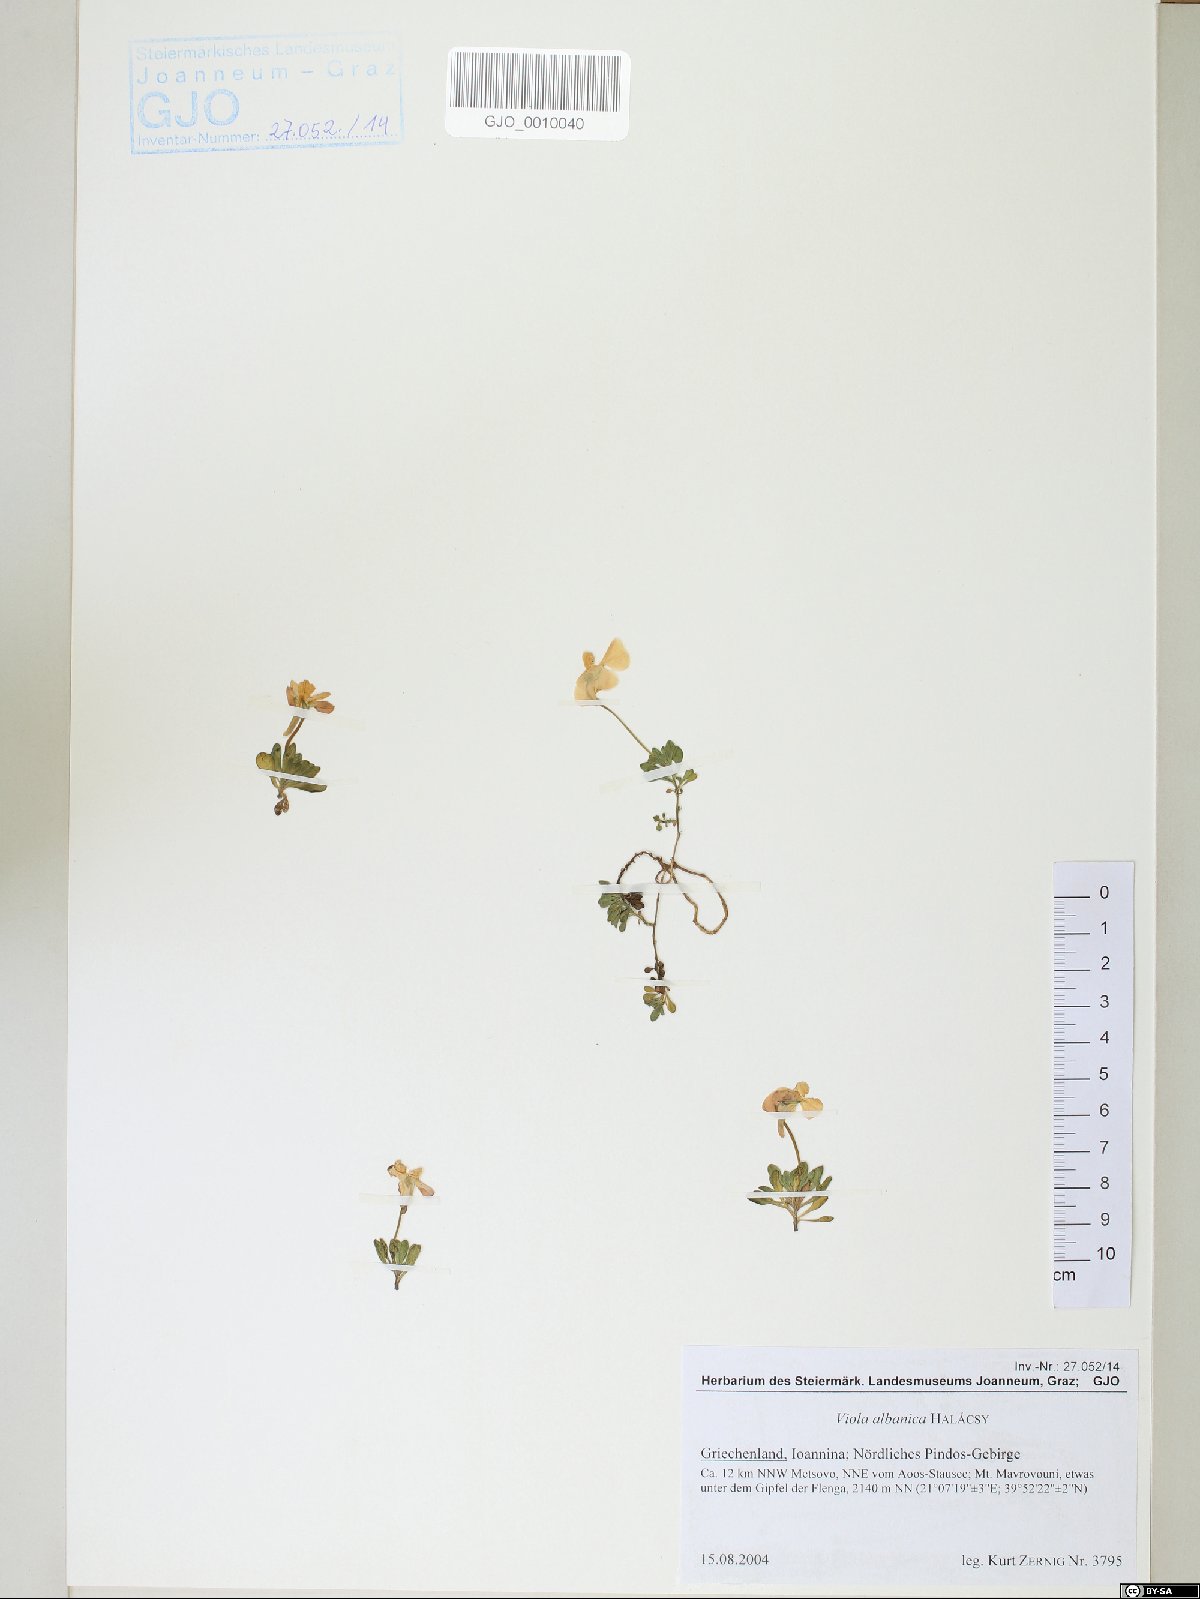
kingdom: Plantae
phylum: Tracheophyta
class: Magnoliopsida
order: Malpighiales
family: Violaceae
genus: Viola
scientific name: Viola albanica
